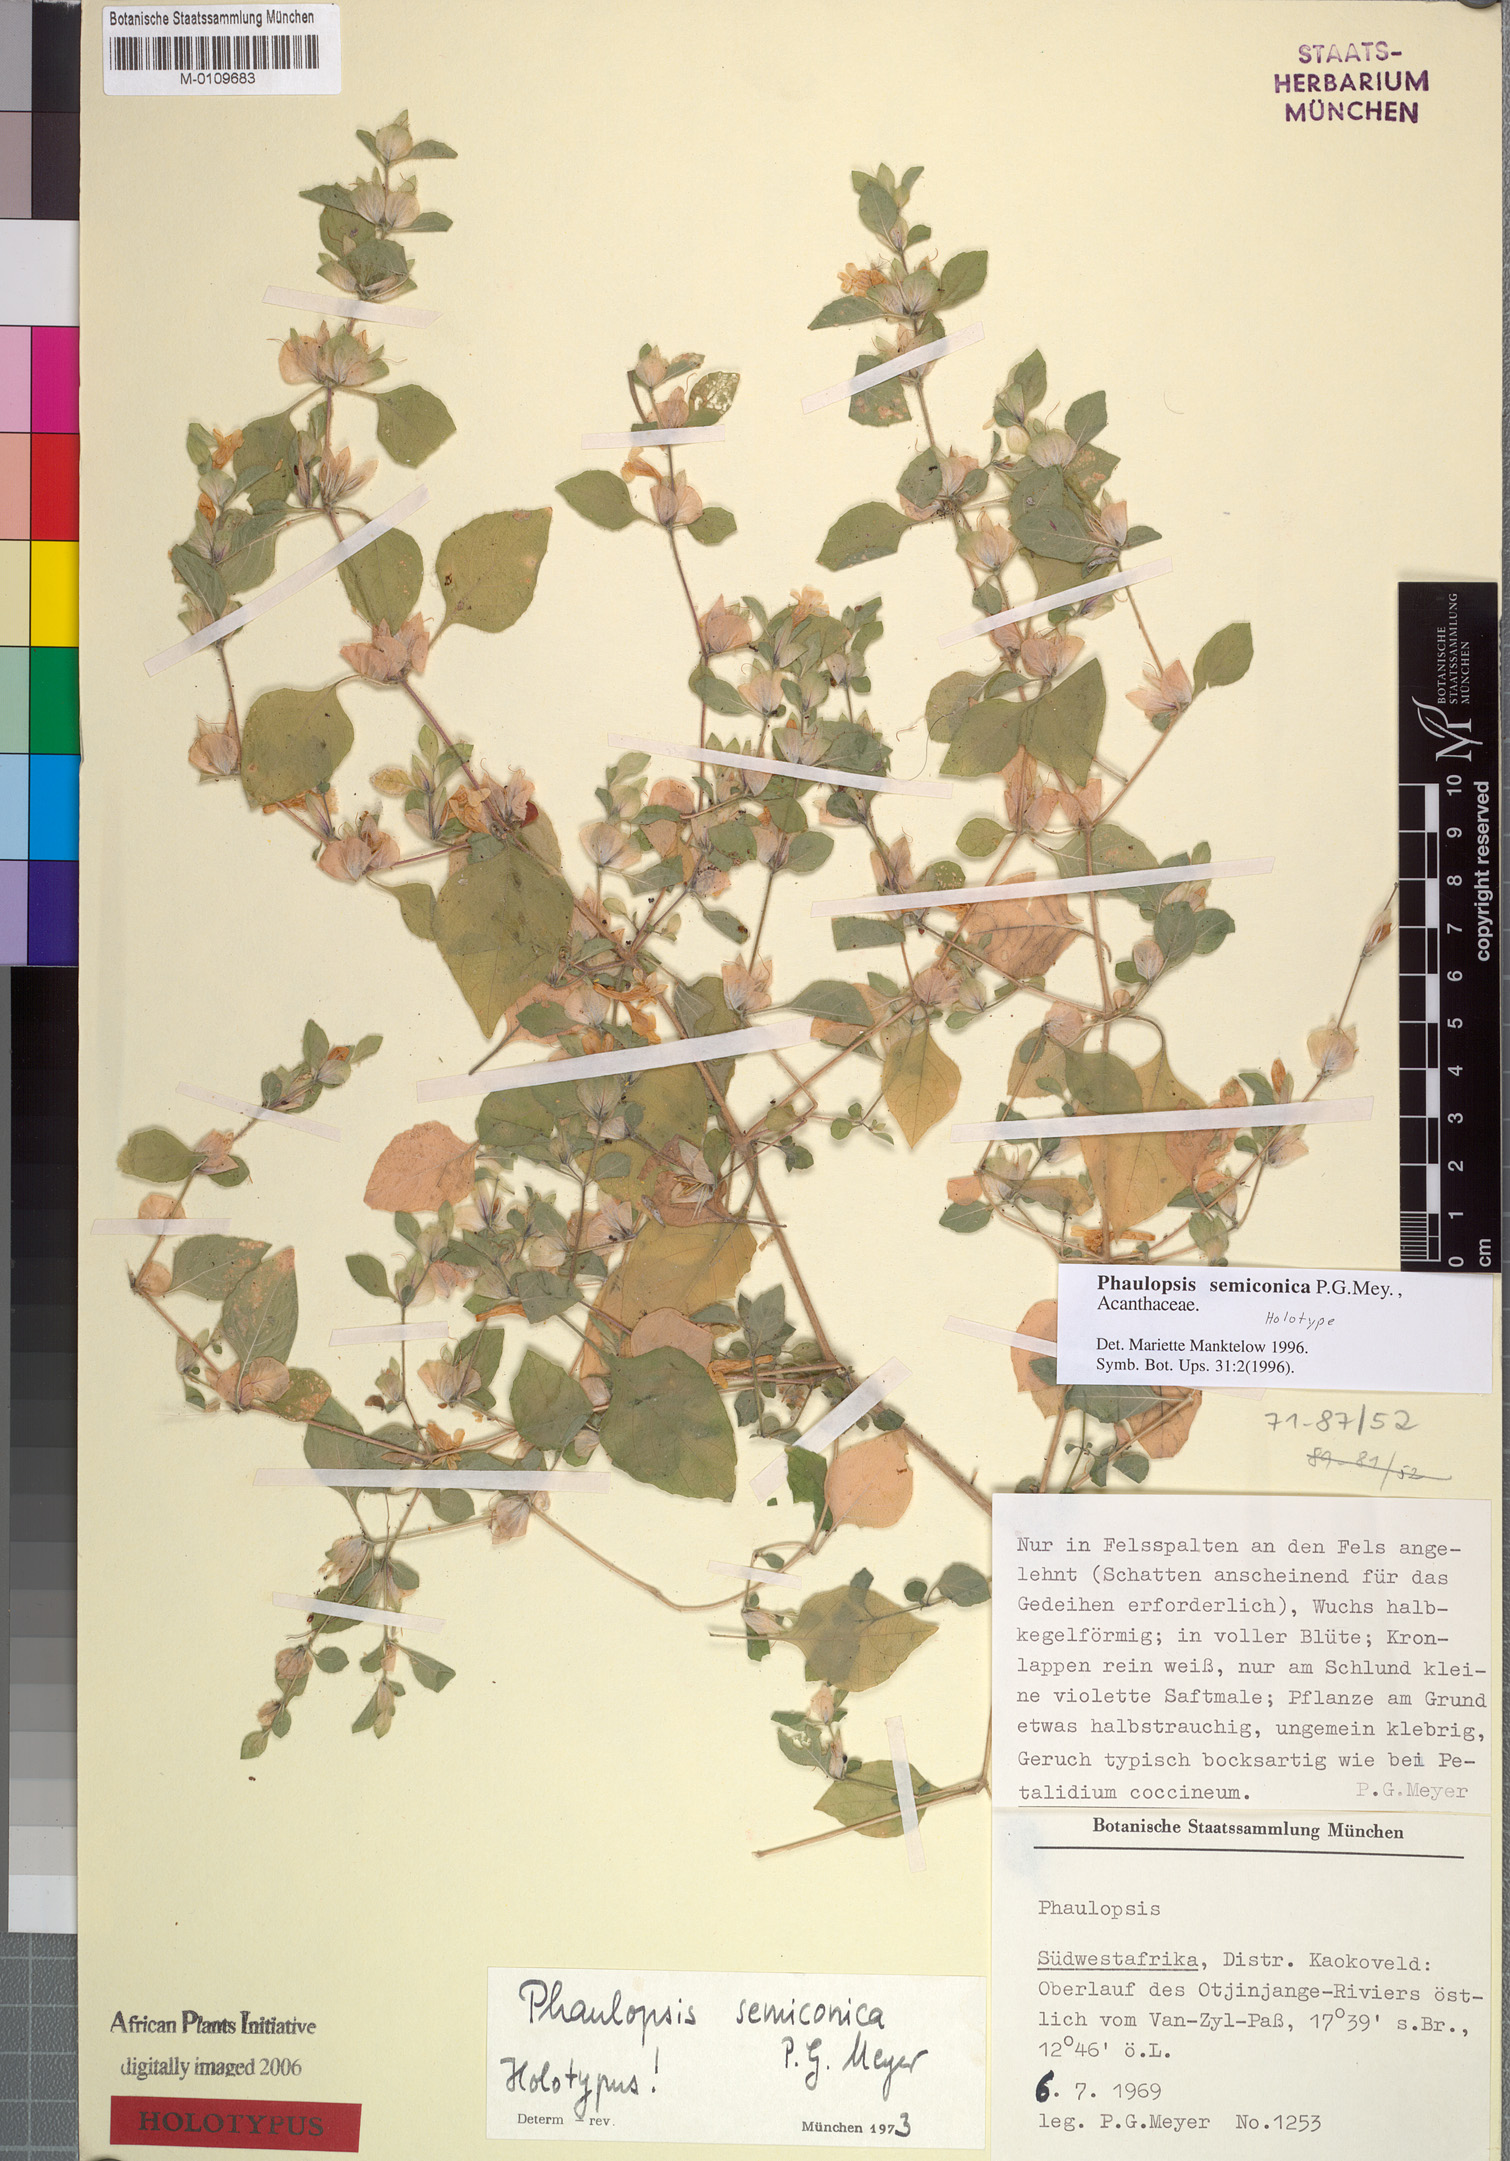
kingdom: Plantae
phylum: Tracheophyta
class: Magnoliopsida
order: Lamiales
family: Acanthaceae
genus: Phaulopsis
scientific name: Phaulopsis semiconica
